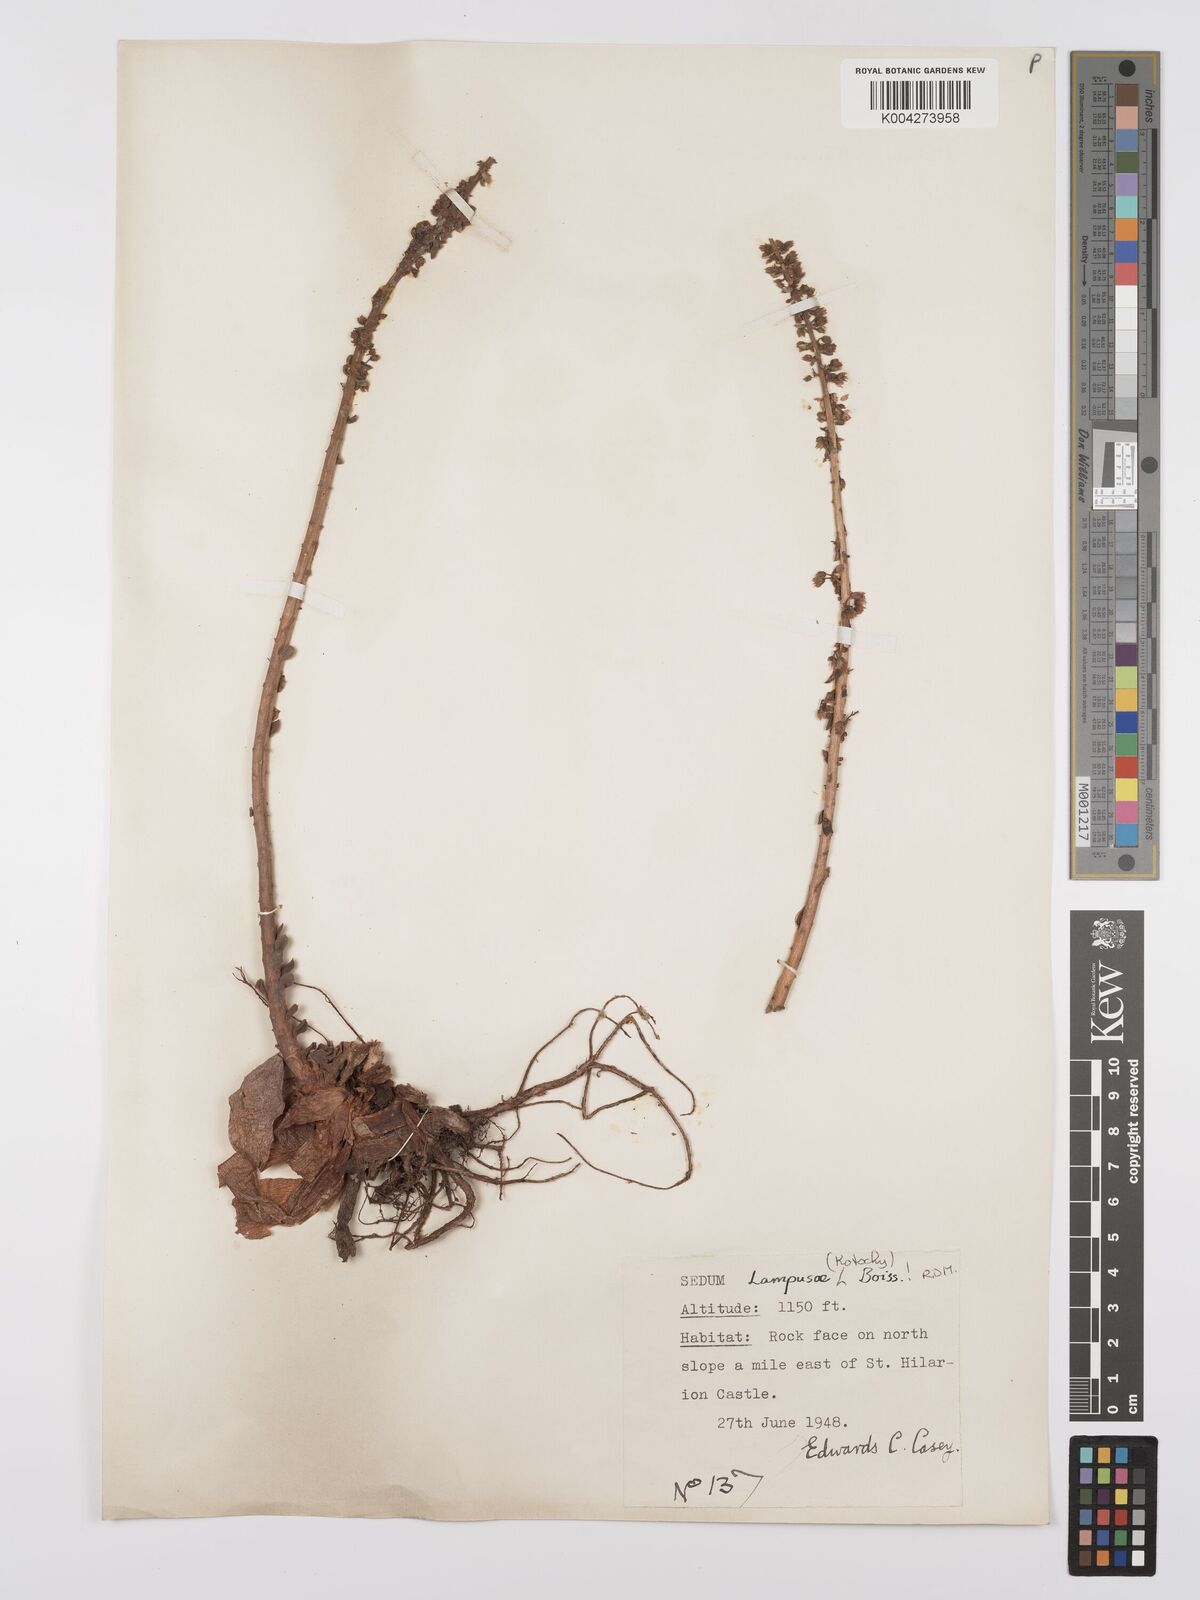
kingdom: Plantae
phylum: Tracheophyta
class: Magnoliopsida
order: Saxifragales
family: Crassulaceae
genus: Sedum
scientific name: Sedum lampusae
